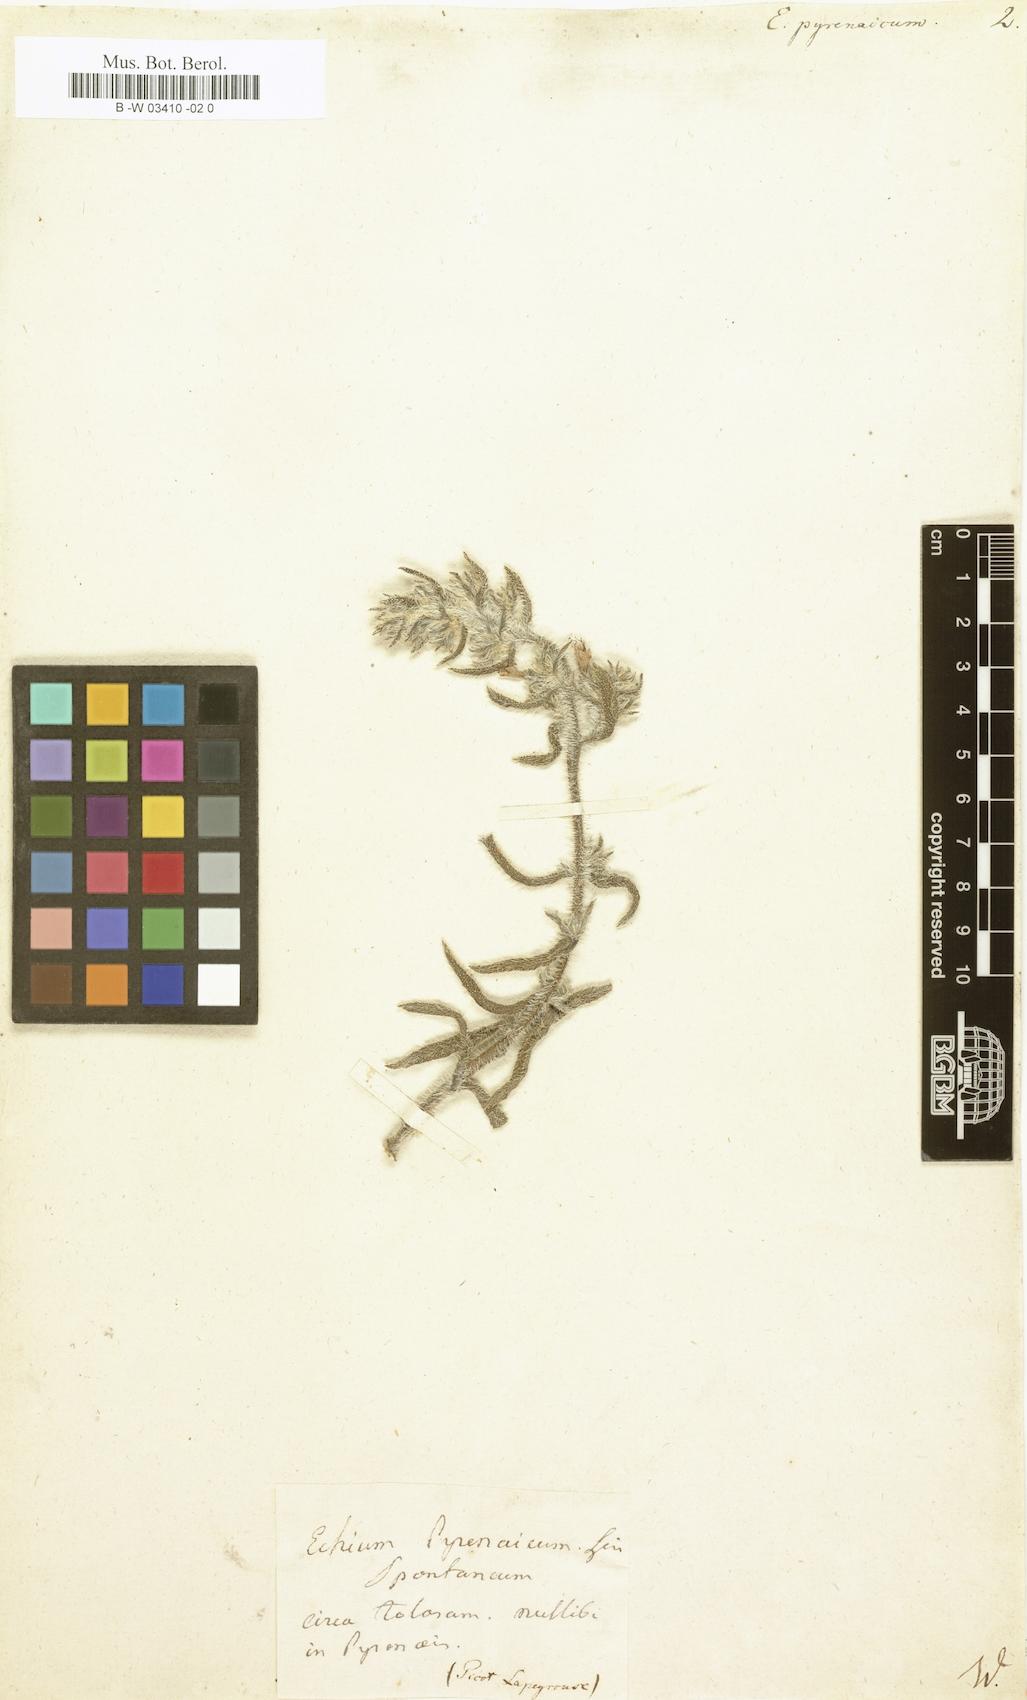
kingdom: Plantae
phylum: Tracheophyta
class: Magnoliopsida
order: Boraginales
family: Boraginaceae
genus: Echium
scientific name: Echium
